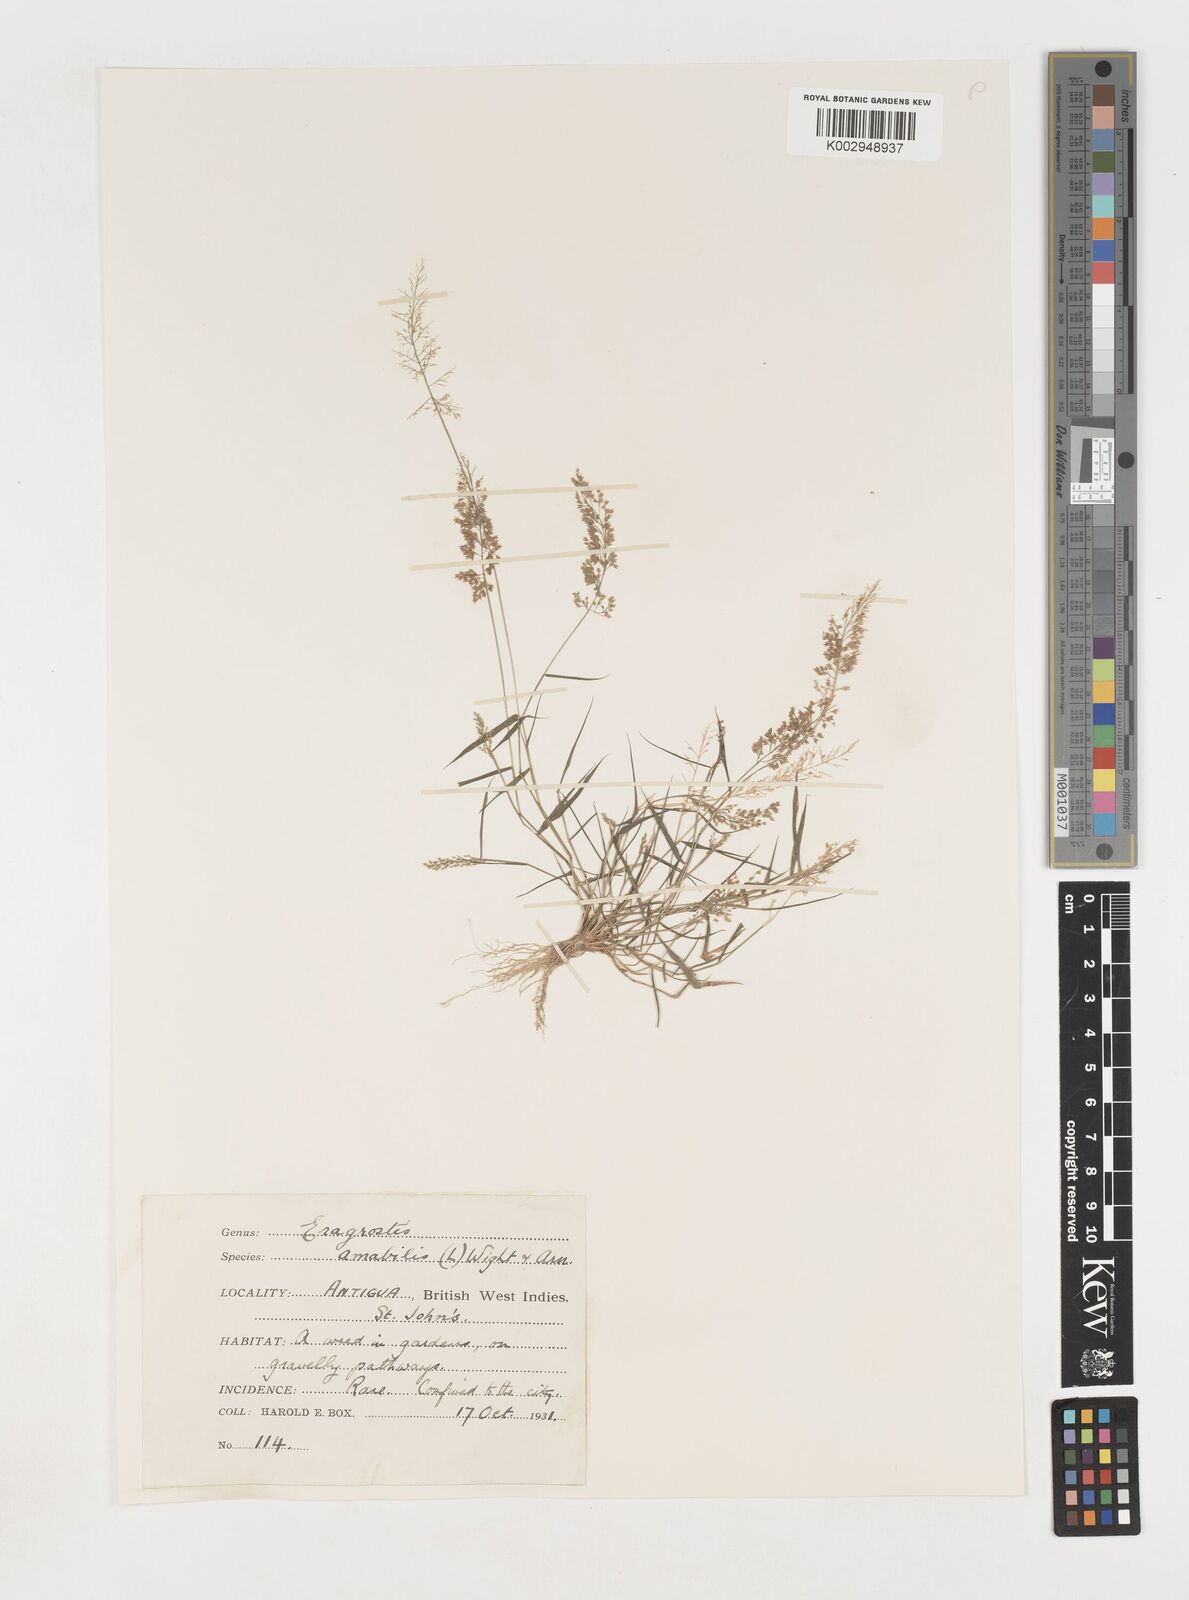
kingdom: Plantae
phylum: Tracheophyta
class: Liliopsida
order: Poales
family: Poaceae
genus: Eragrostis
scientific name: Eragrostis tenella
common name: Japanese lovegrass
